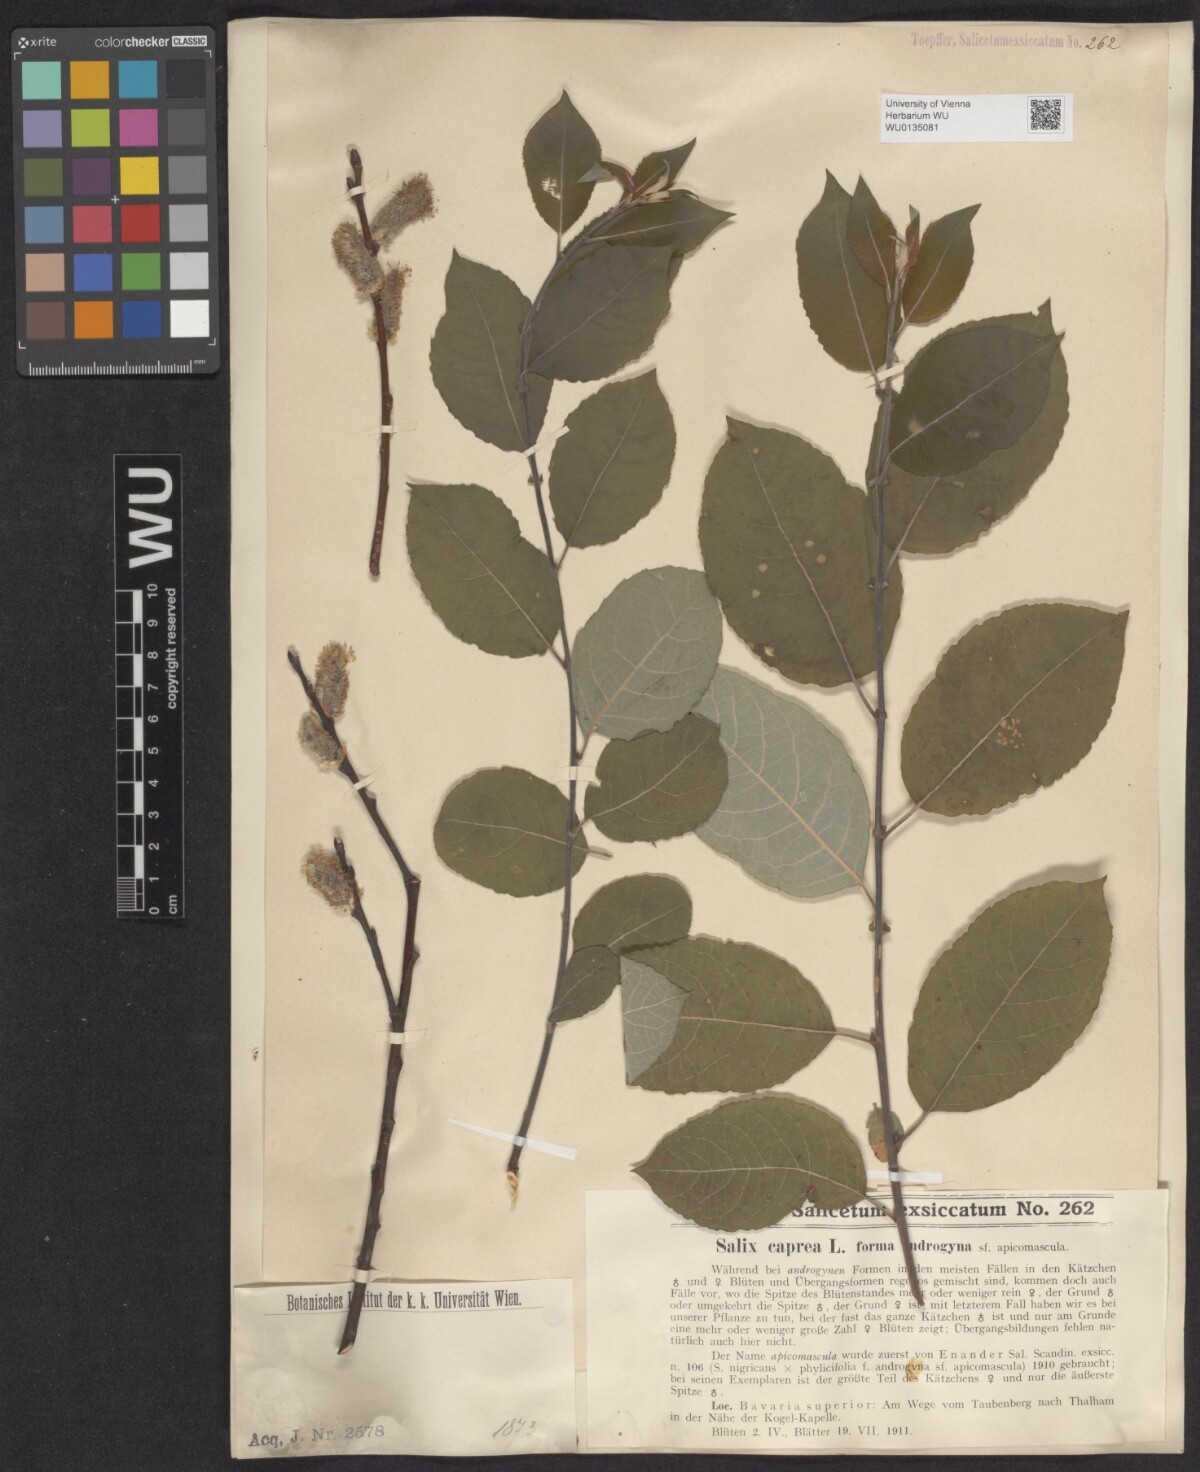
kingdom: Plantae
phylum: Tracheophyta
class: Magnoliopsida
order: Malpighiales
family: Salicaceae
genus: Salix
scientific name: Salix caprea
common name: Goat willow
